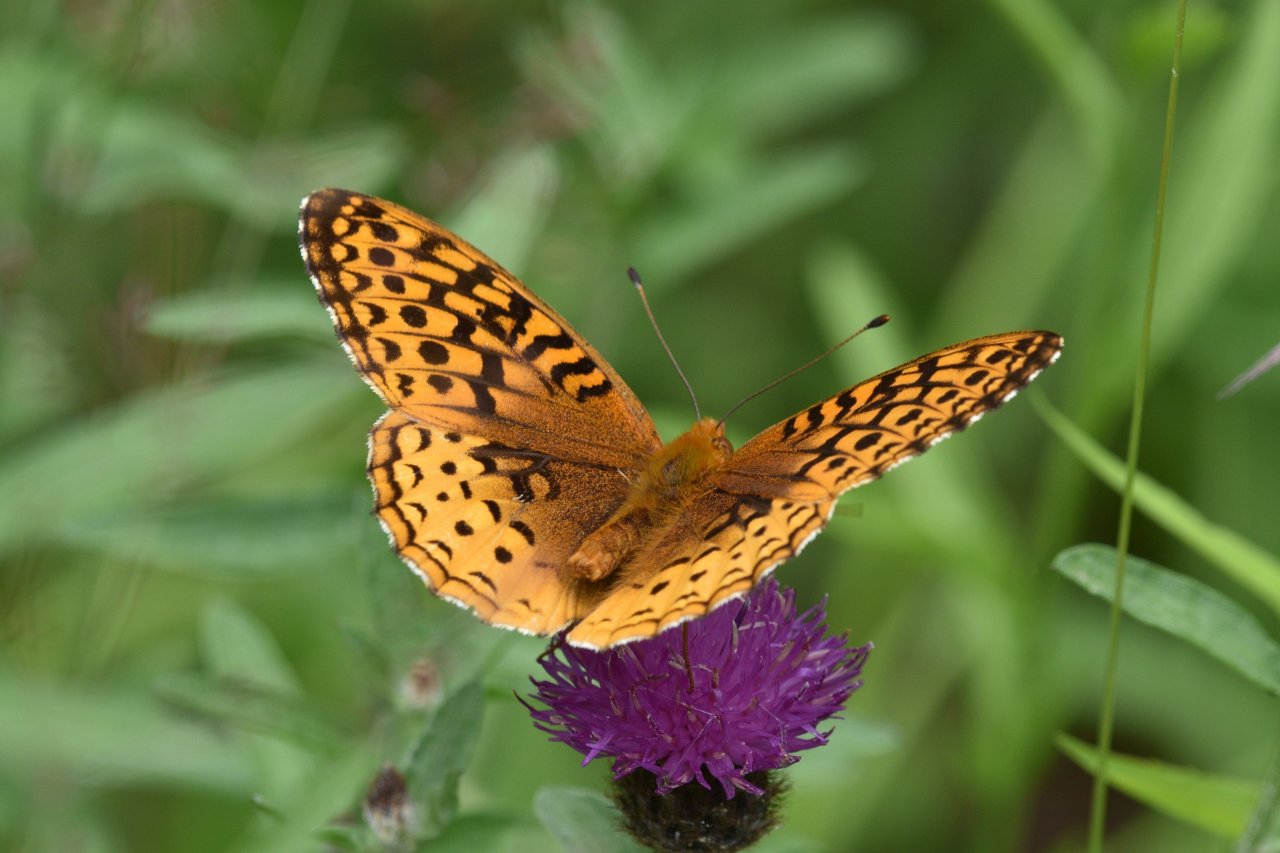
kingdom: Animalia
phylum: Arthropoda
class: Insecta
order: Lepidoptera
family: Nymphalidae
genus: Speyeria
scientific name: Speyeria cybele
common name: Great Spangled Fritillary
